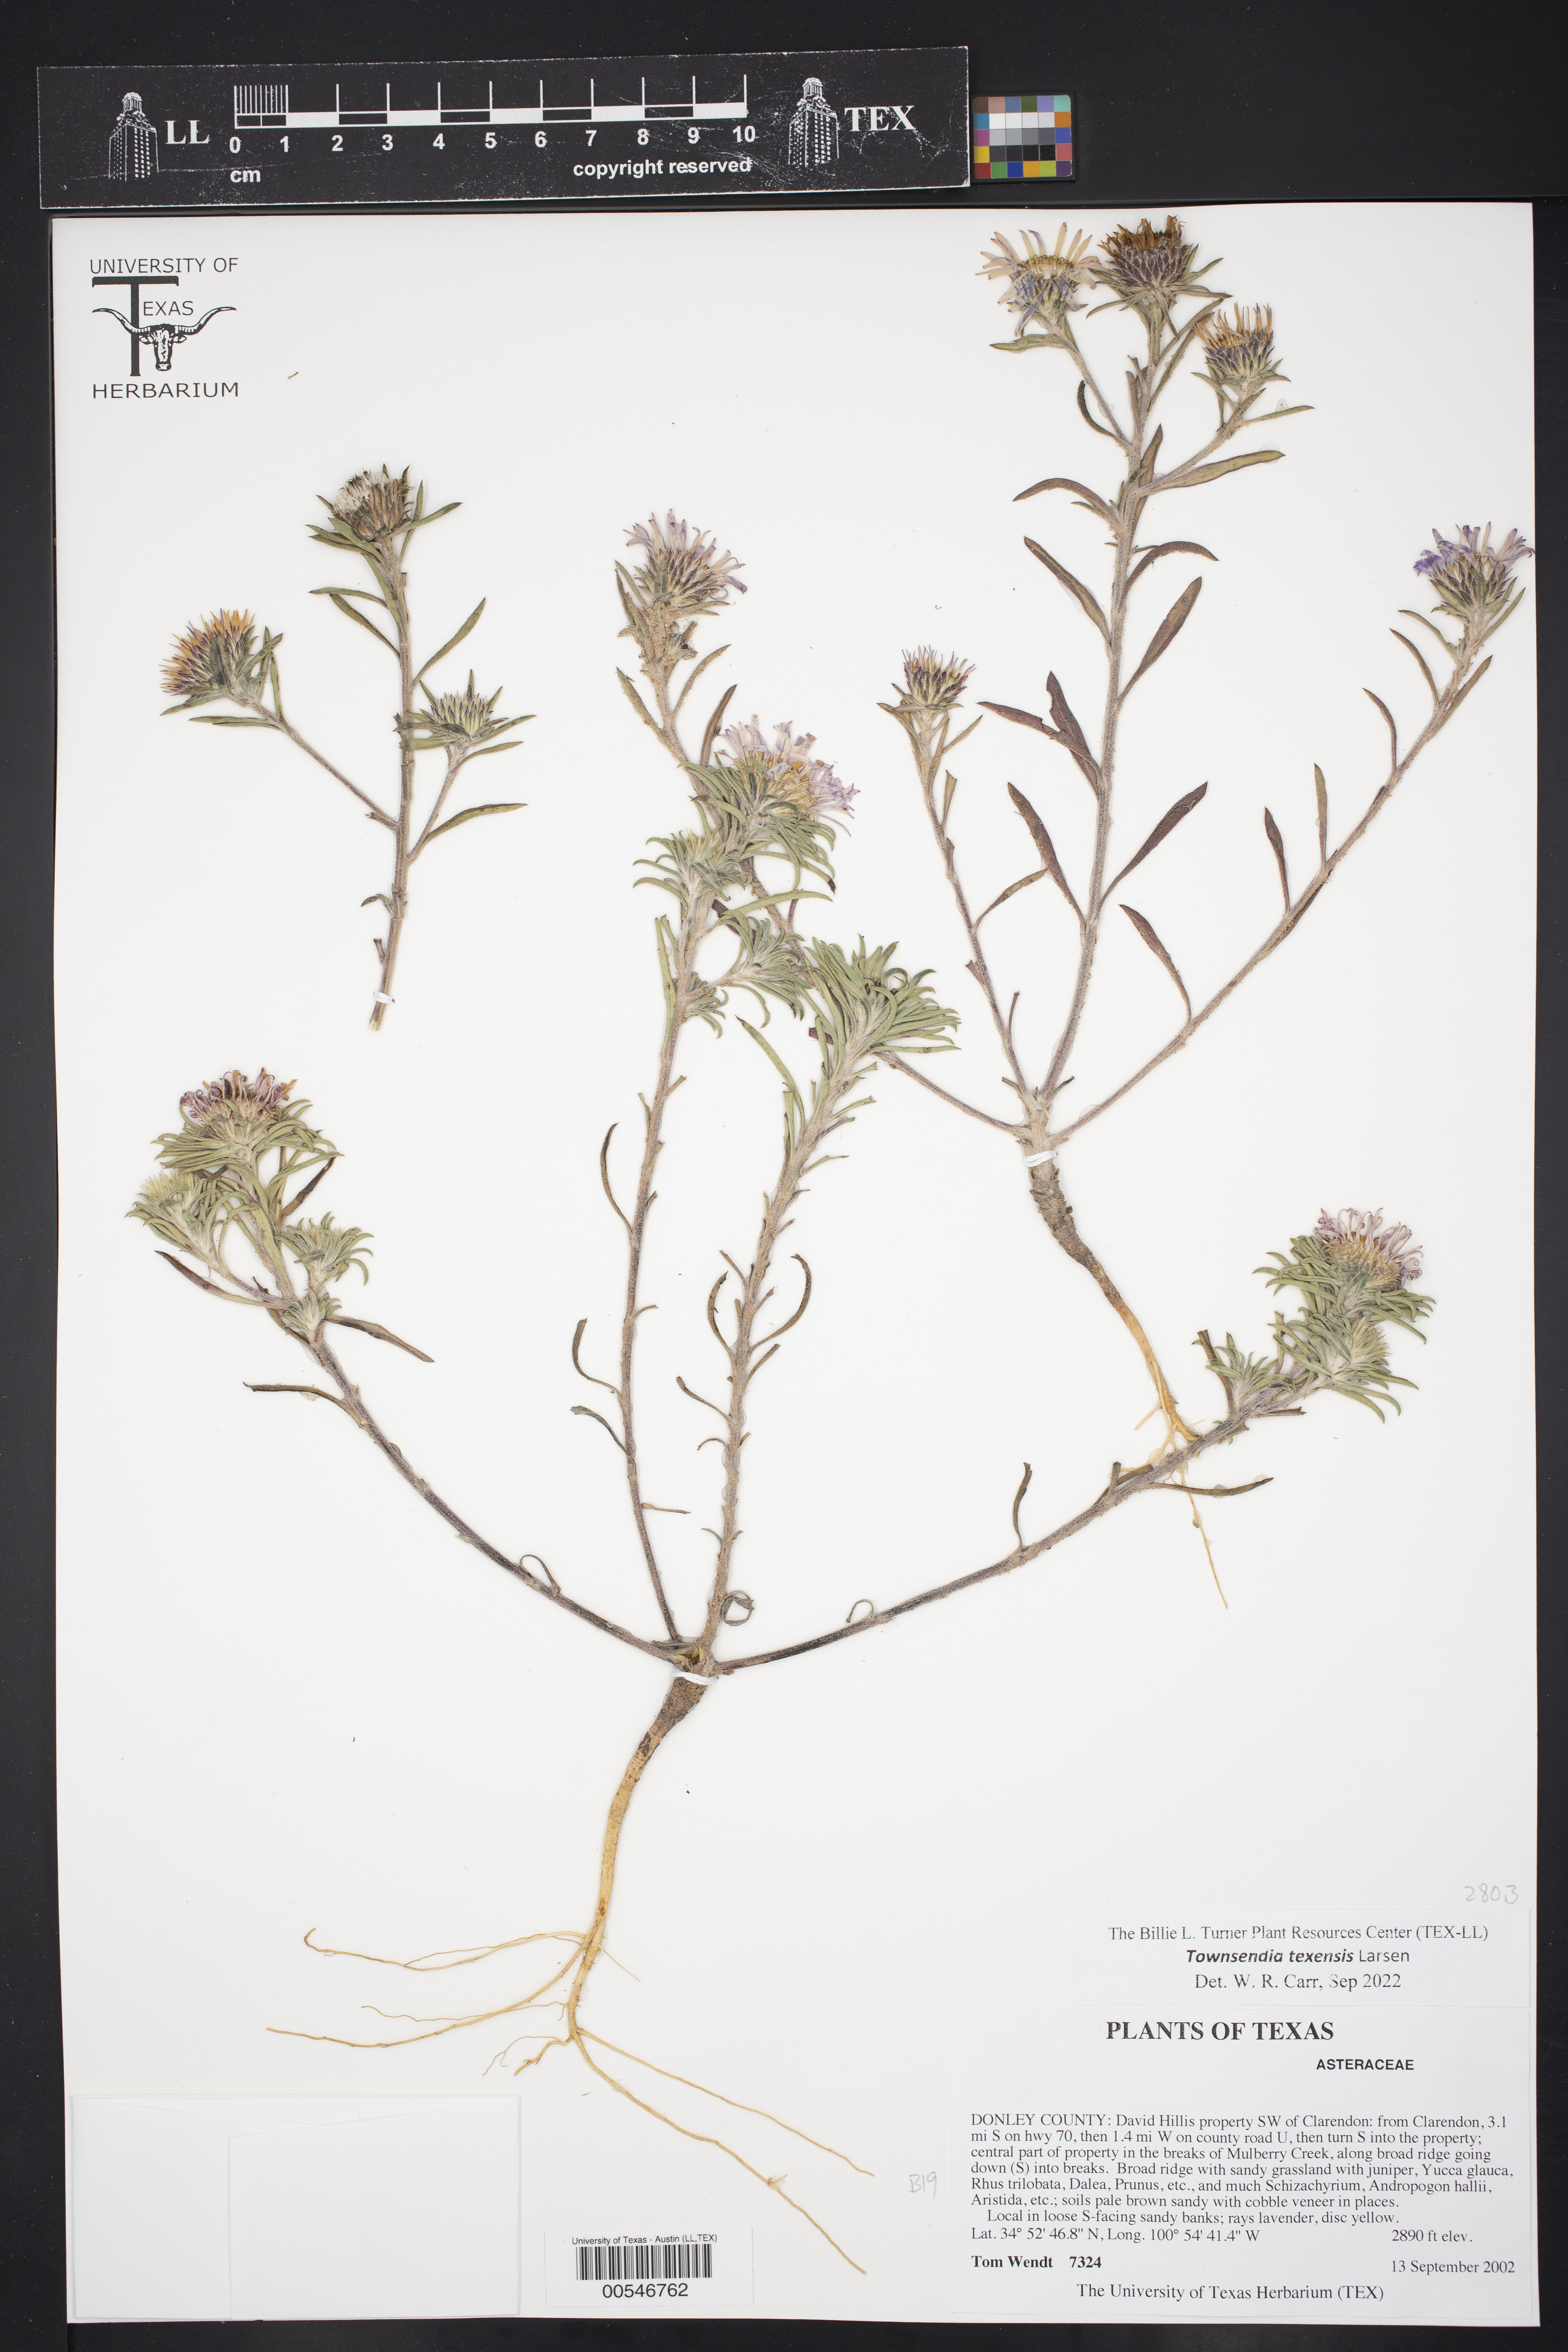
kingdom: Plantae
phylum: Tracheophyta
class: Magnoliopsida
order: Asterales
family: Asteraceae
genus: Townsendia
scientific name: Townsendia texensis
